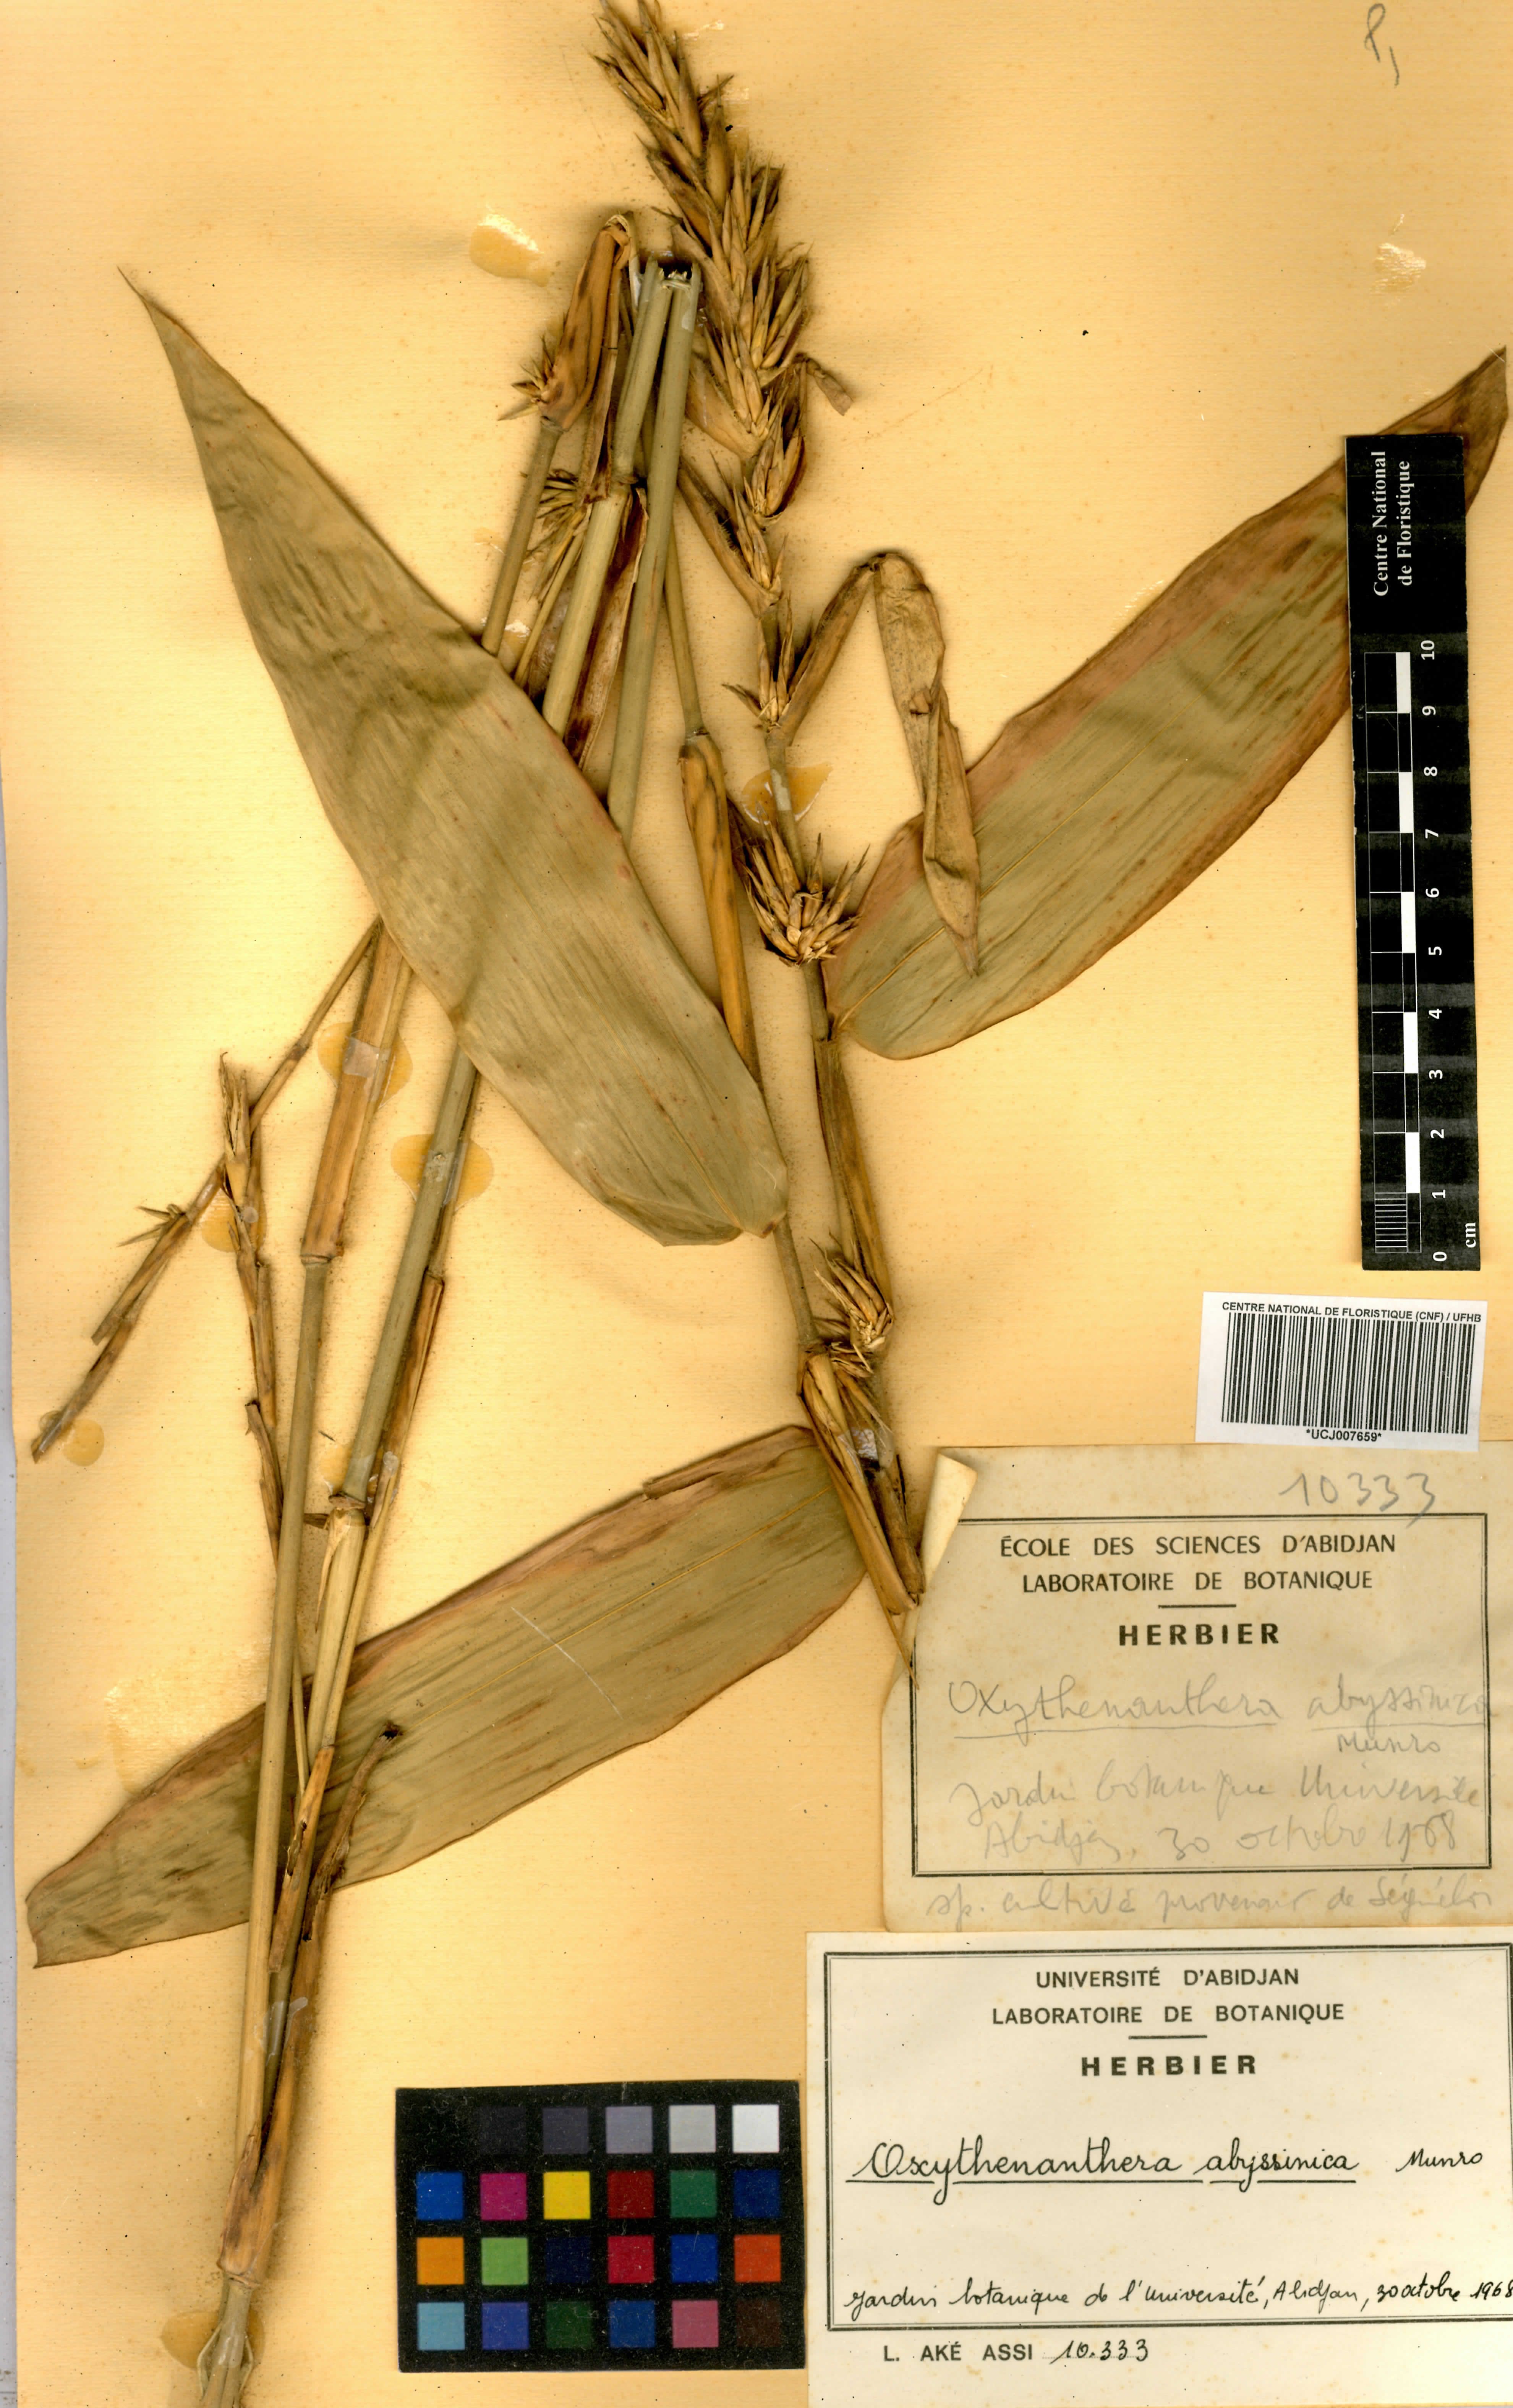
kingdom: Plantae
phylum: Tracheophyta
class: Liliopsida
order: Poales
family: Poaceae
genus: Oxytenanthera
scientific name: Oxytenanthera abyssinica
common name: Wine bamboo
